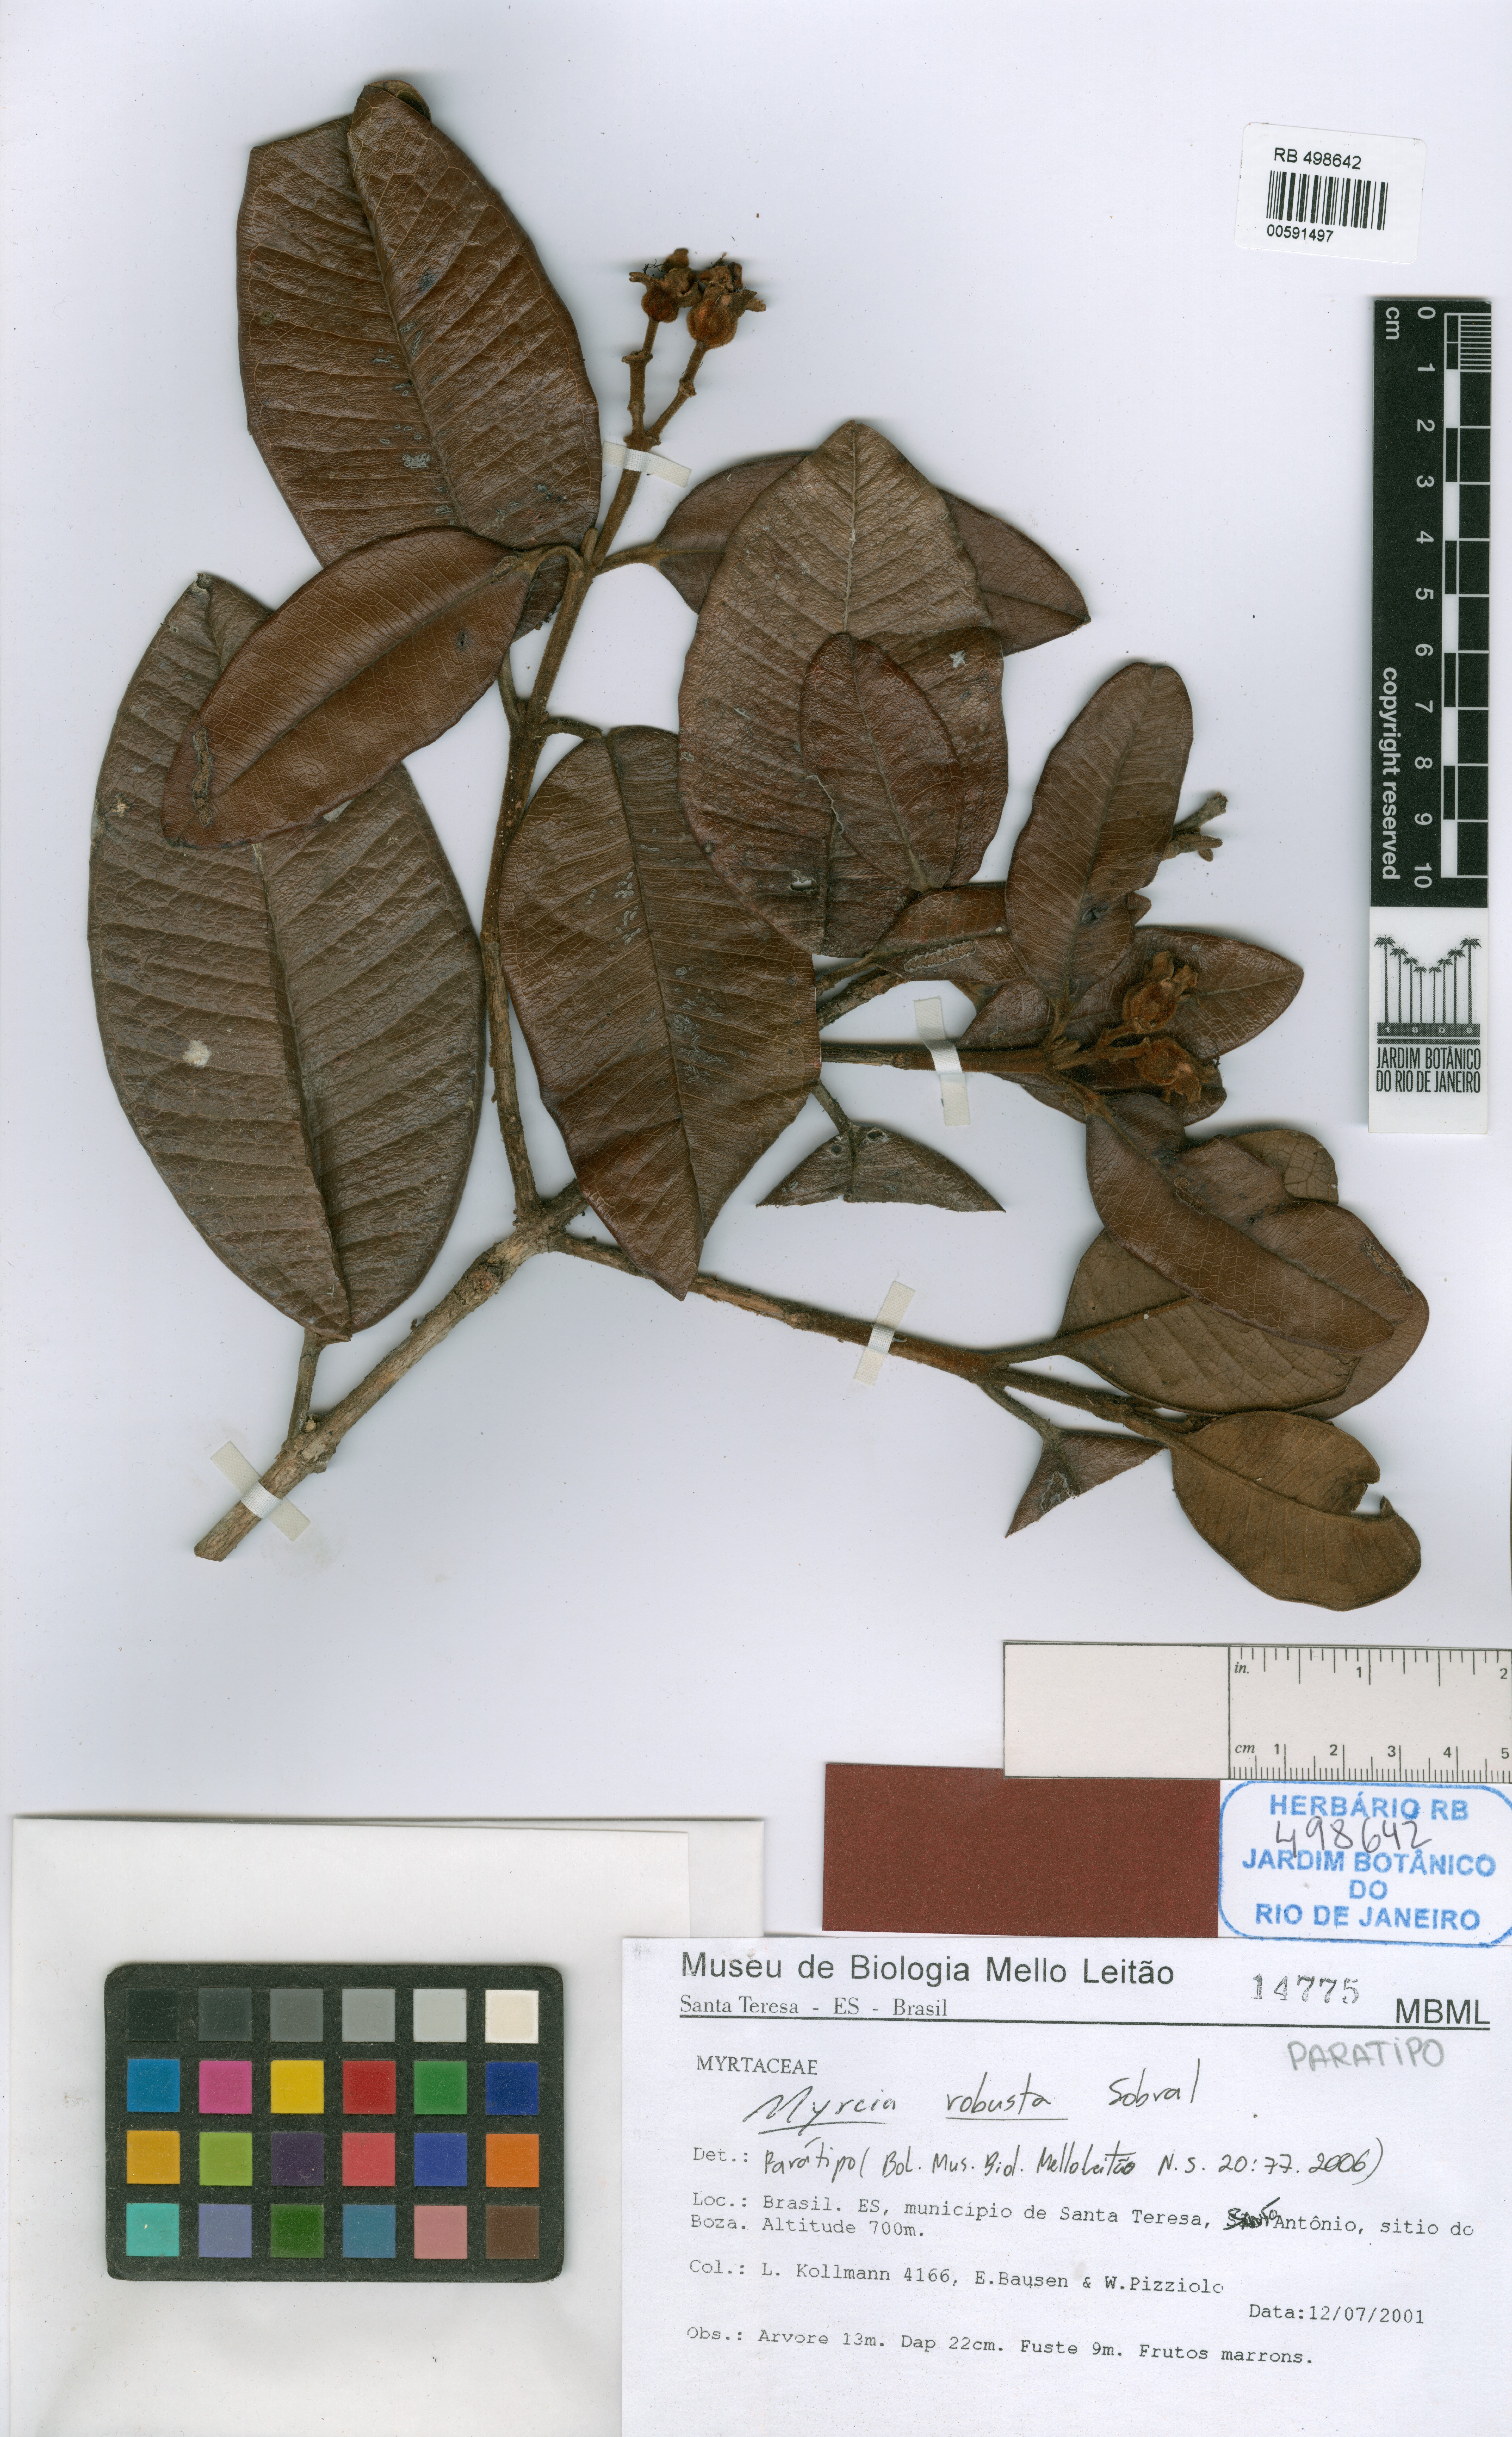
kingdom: Plantae
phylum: Tracheophyta
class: Magnoliopsida
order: Myrtales
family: Myrtaceae
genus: Myrcia
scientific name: Myrcia robusta
